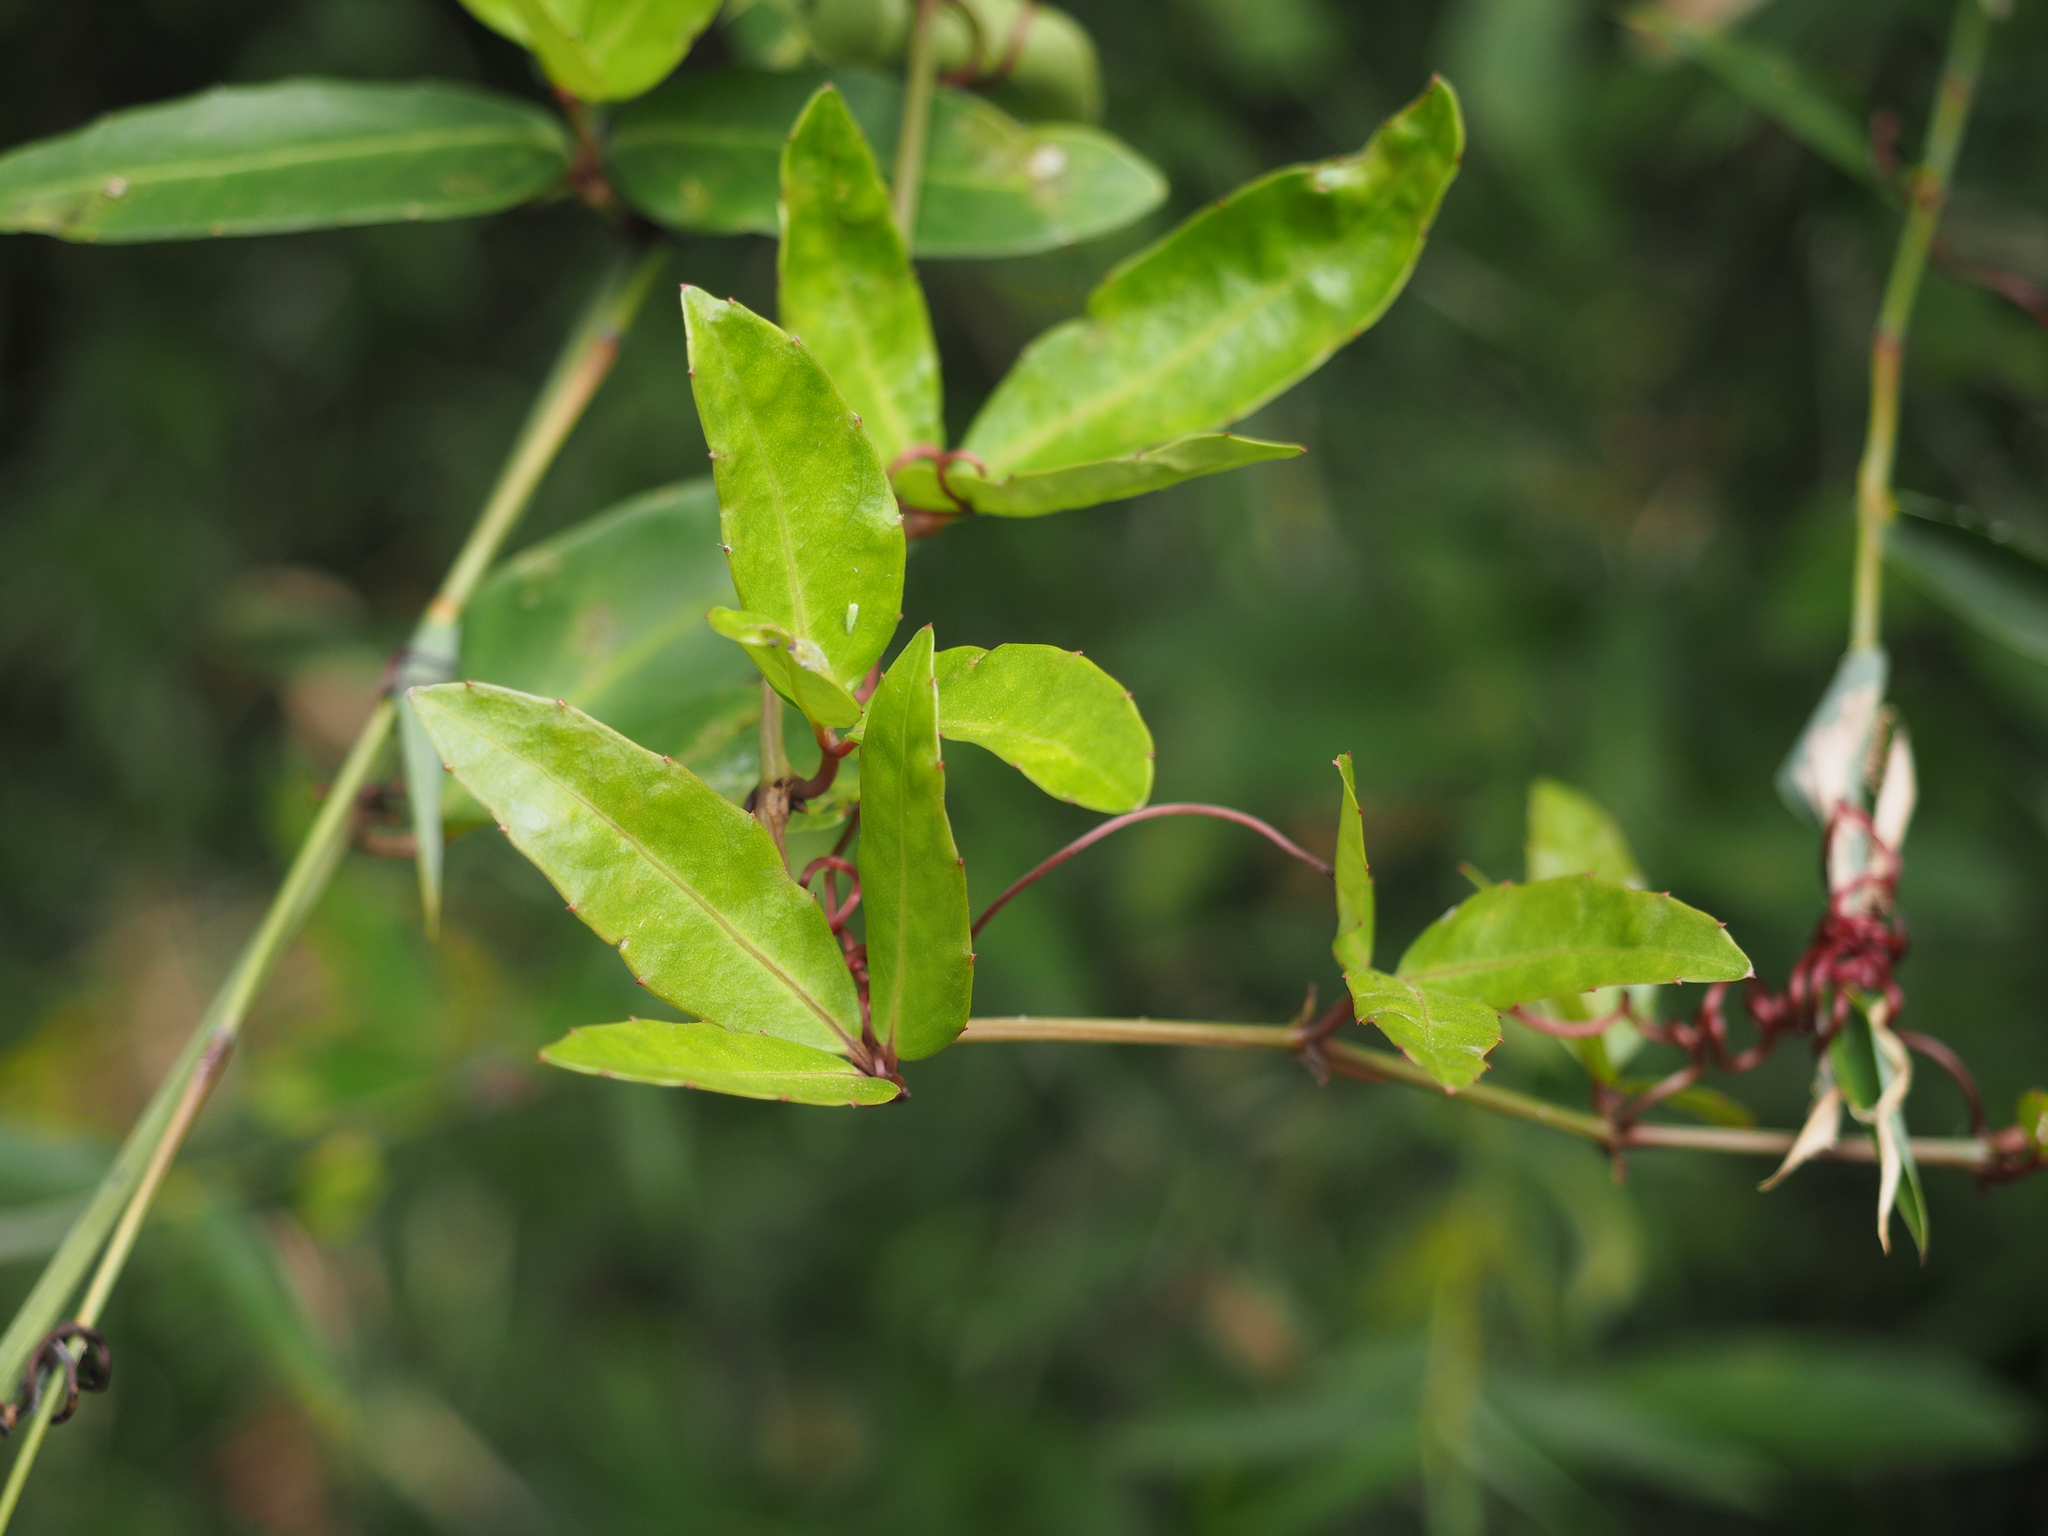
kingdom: Plantae
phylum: Tracheophyta
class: Magnoliopsida
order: Vitales
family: Vitaceae
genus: Tetrastigma
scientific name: Tetrastigma dentatum
